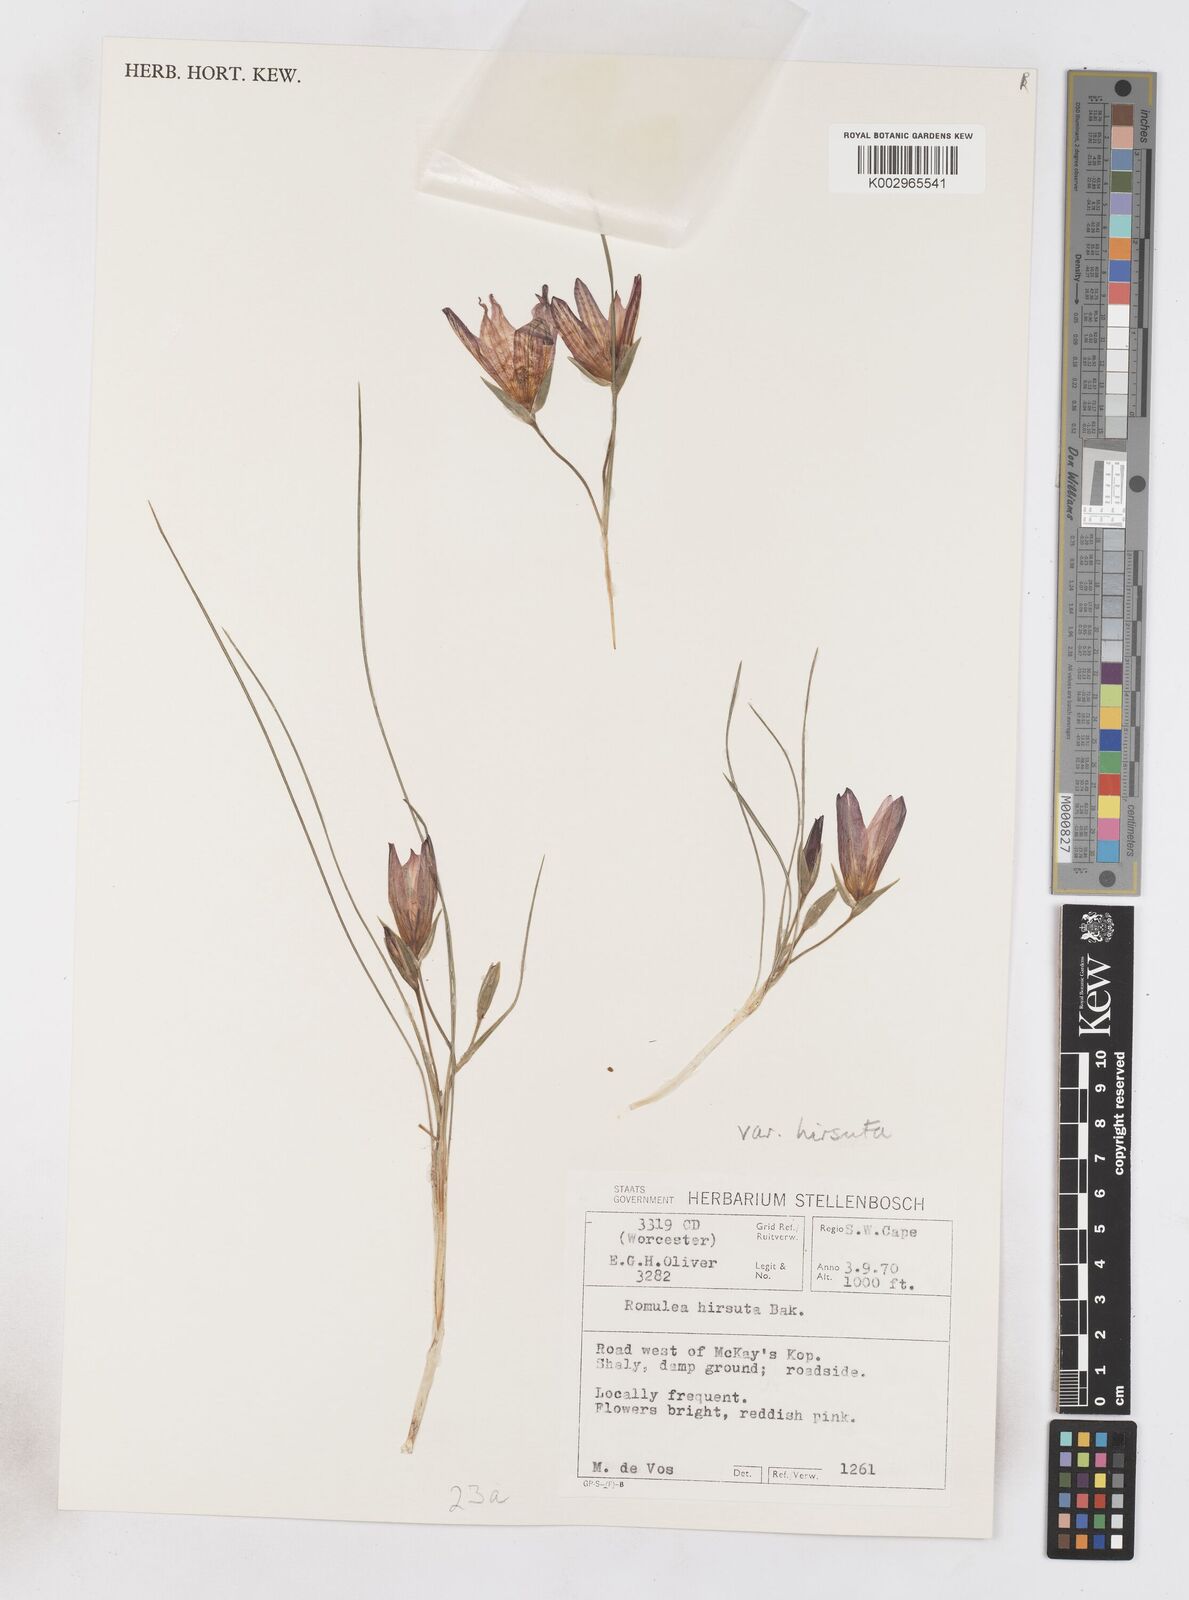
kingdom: Plantae
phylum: Tracheophyta
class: Liliopsida
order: Asparagales
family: Iridaceae
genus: Romulea
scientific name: Romulea hirsuta
